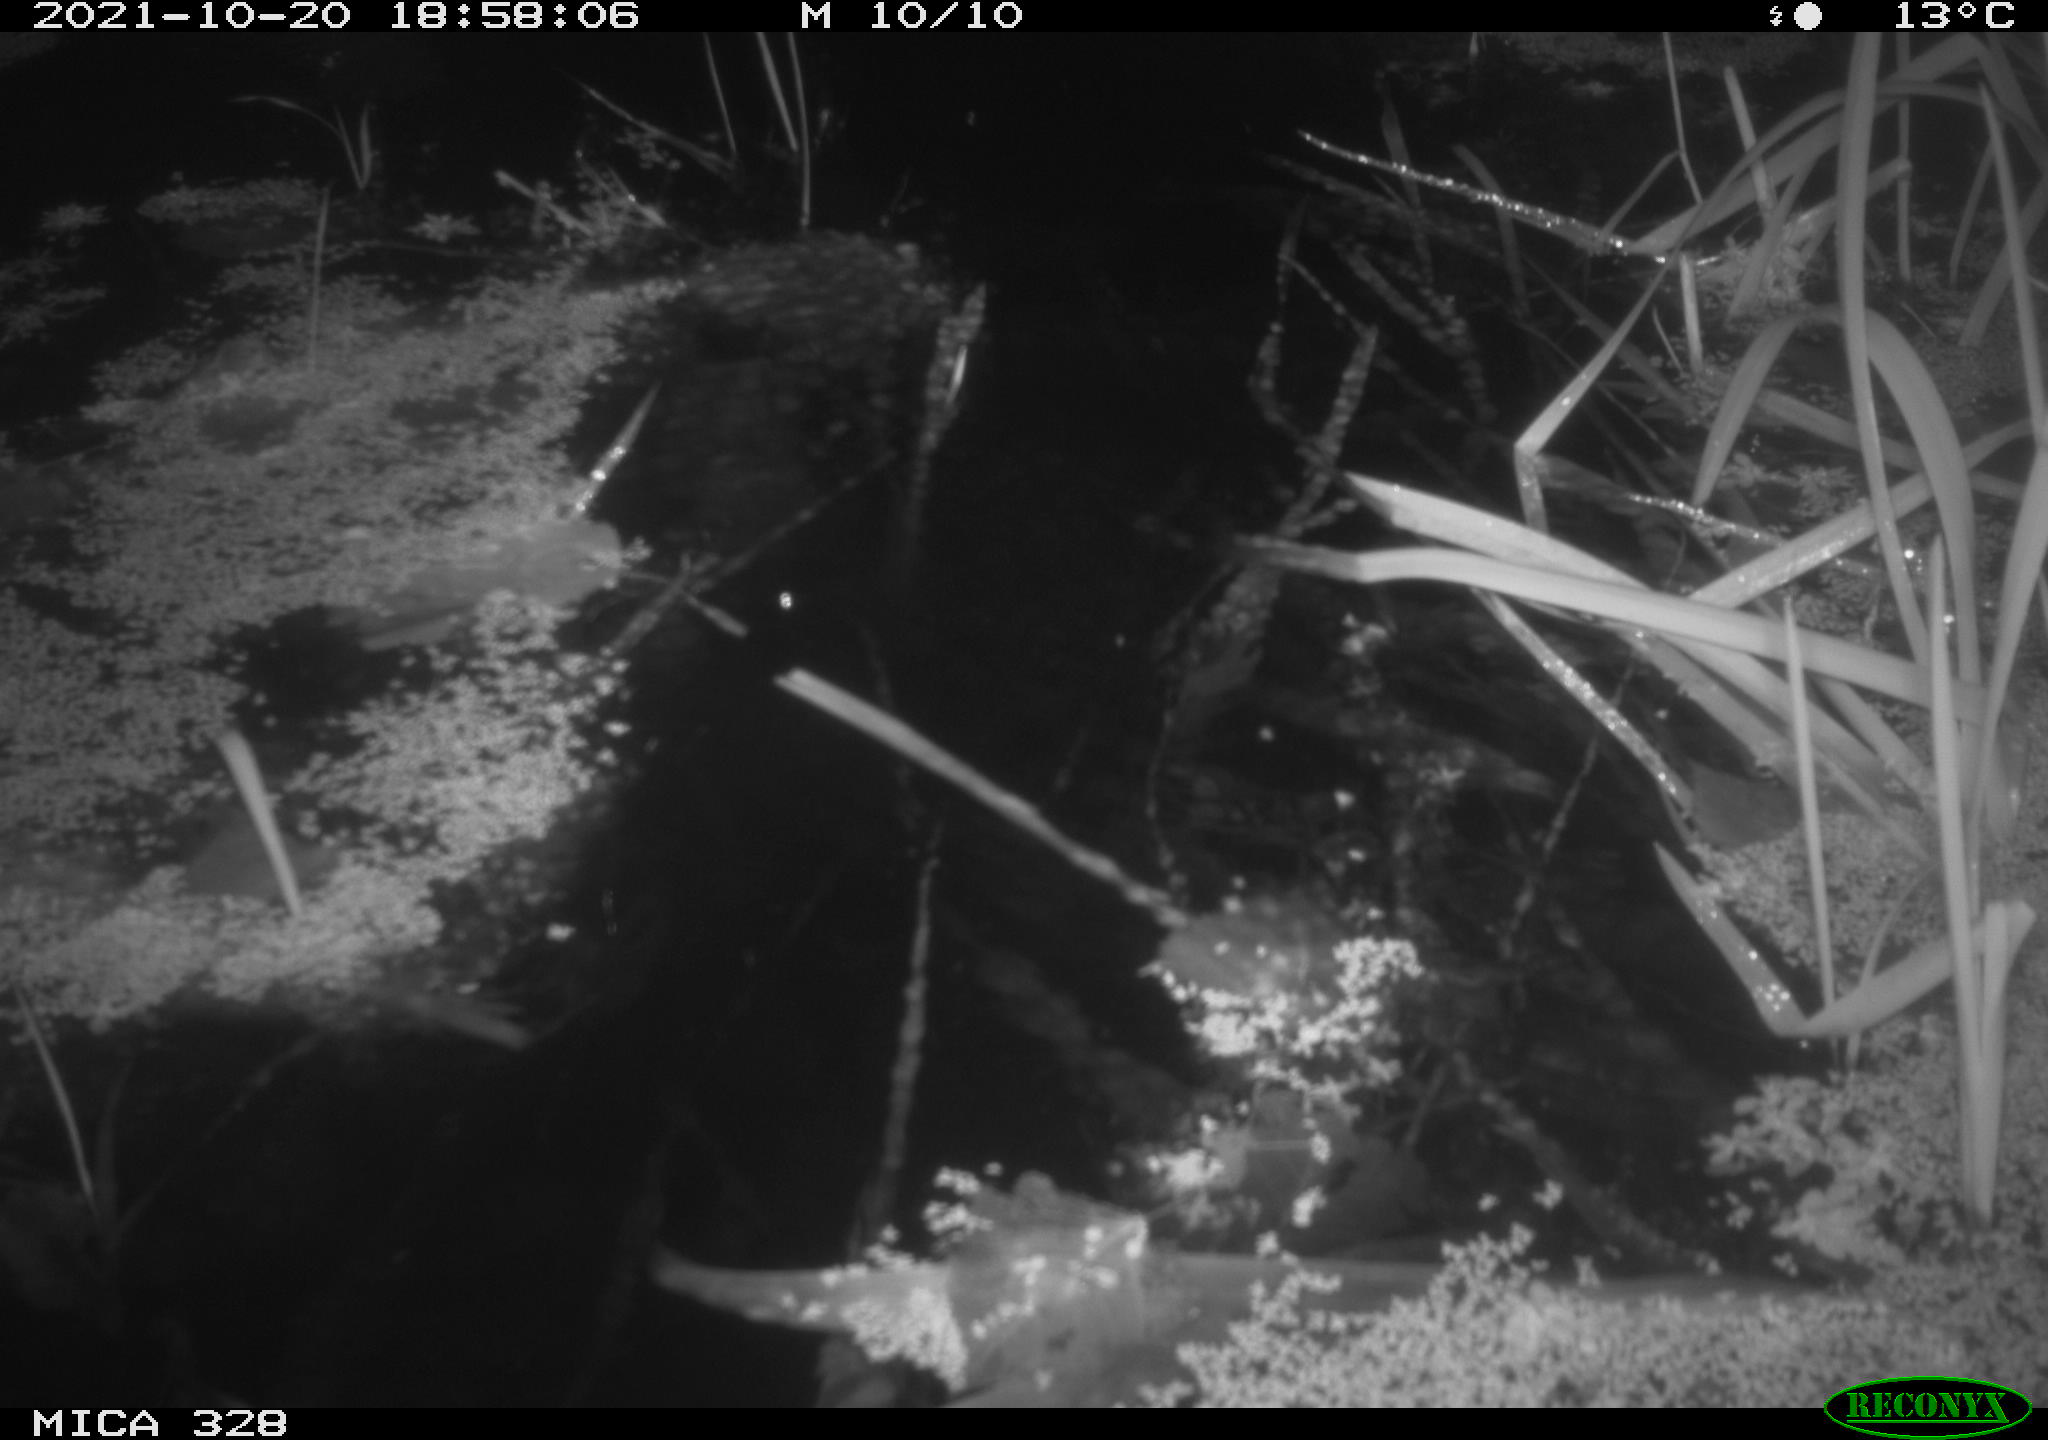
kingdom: Animalia
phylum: Chordata
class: Mammalia
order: Rodentia
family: Cricetidae
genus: Ondatra
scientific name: Ondatra zibethicus
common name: Muskrat
